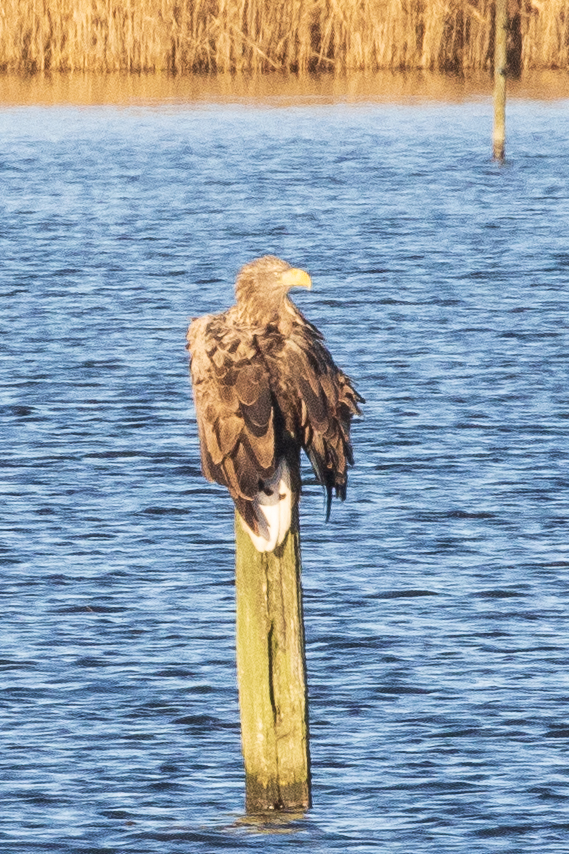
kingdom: Animalia
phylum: Chordata
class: Aves
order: Accipitriformes
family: Accipitridae
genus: Haliaeetus
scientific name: Haliaeetus albicilla
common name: Havørn
